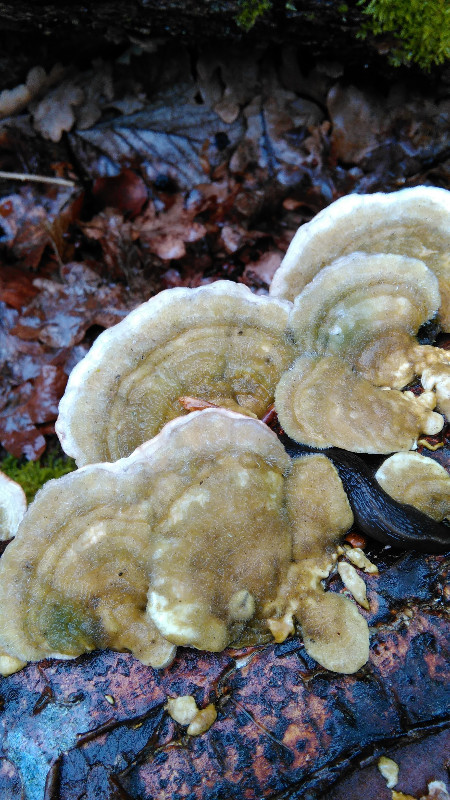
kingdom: Fungi
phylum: Basidiomycota
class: Agaricomycetes
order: Polyporales
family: Polyporaceae
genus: Trametes
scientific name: Trametes hirsuta
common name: håret læderporesvamp
